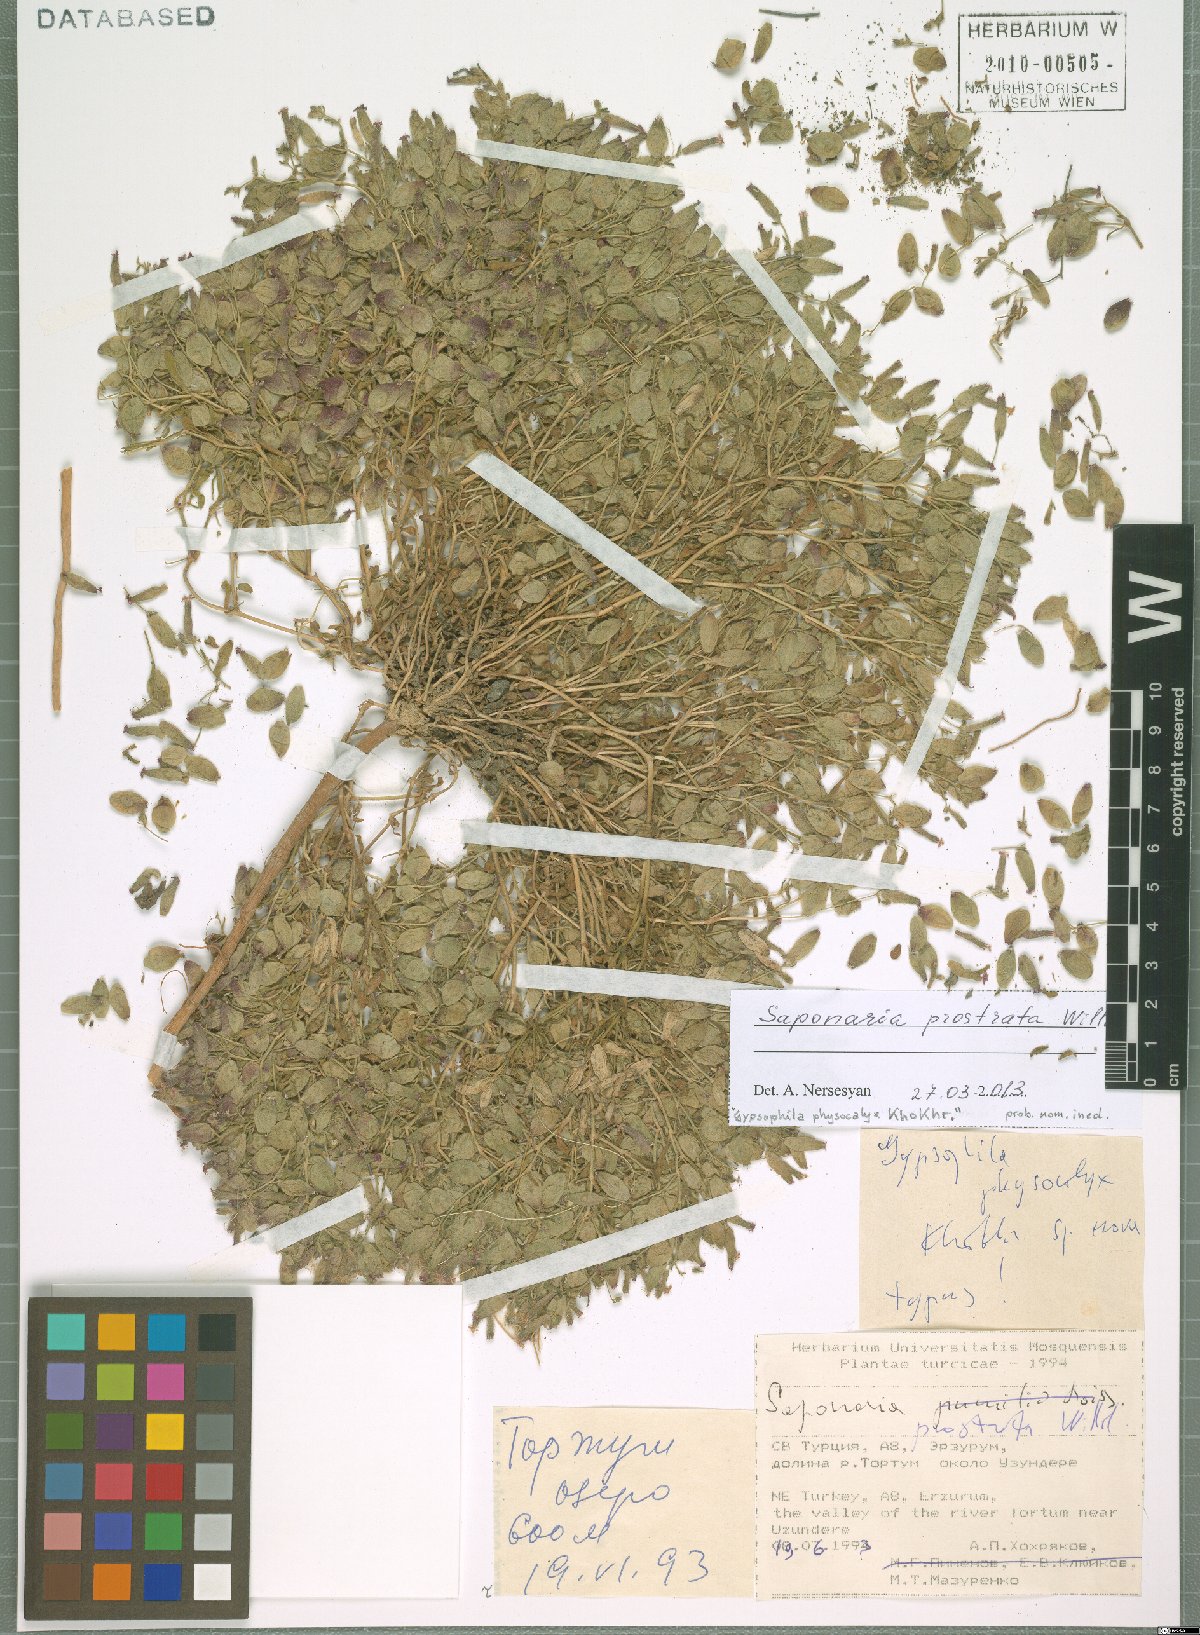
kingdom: Plantae
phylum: Tracheophyta
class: Magnoliopsida
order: Caryophyllales
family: Caryophyllaceae
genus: Saponaria
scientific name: Saponaria prostrata
